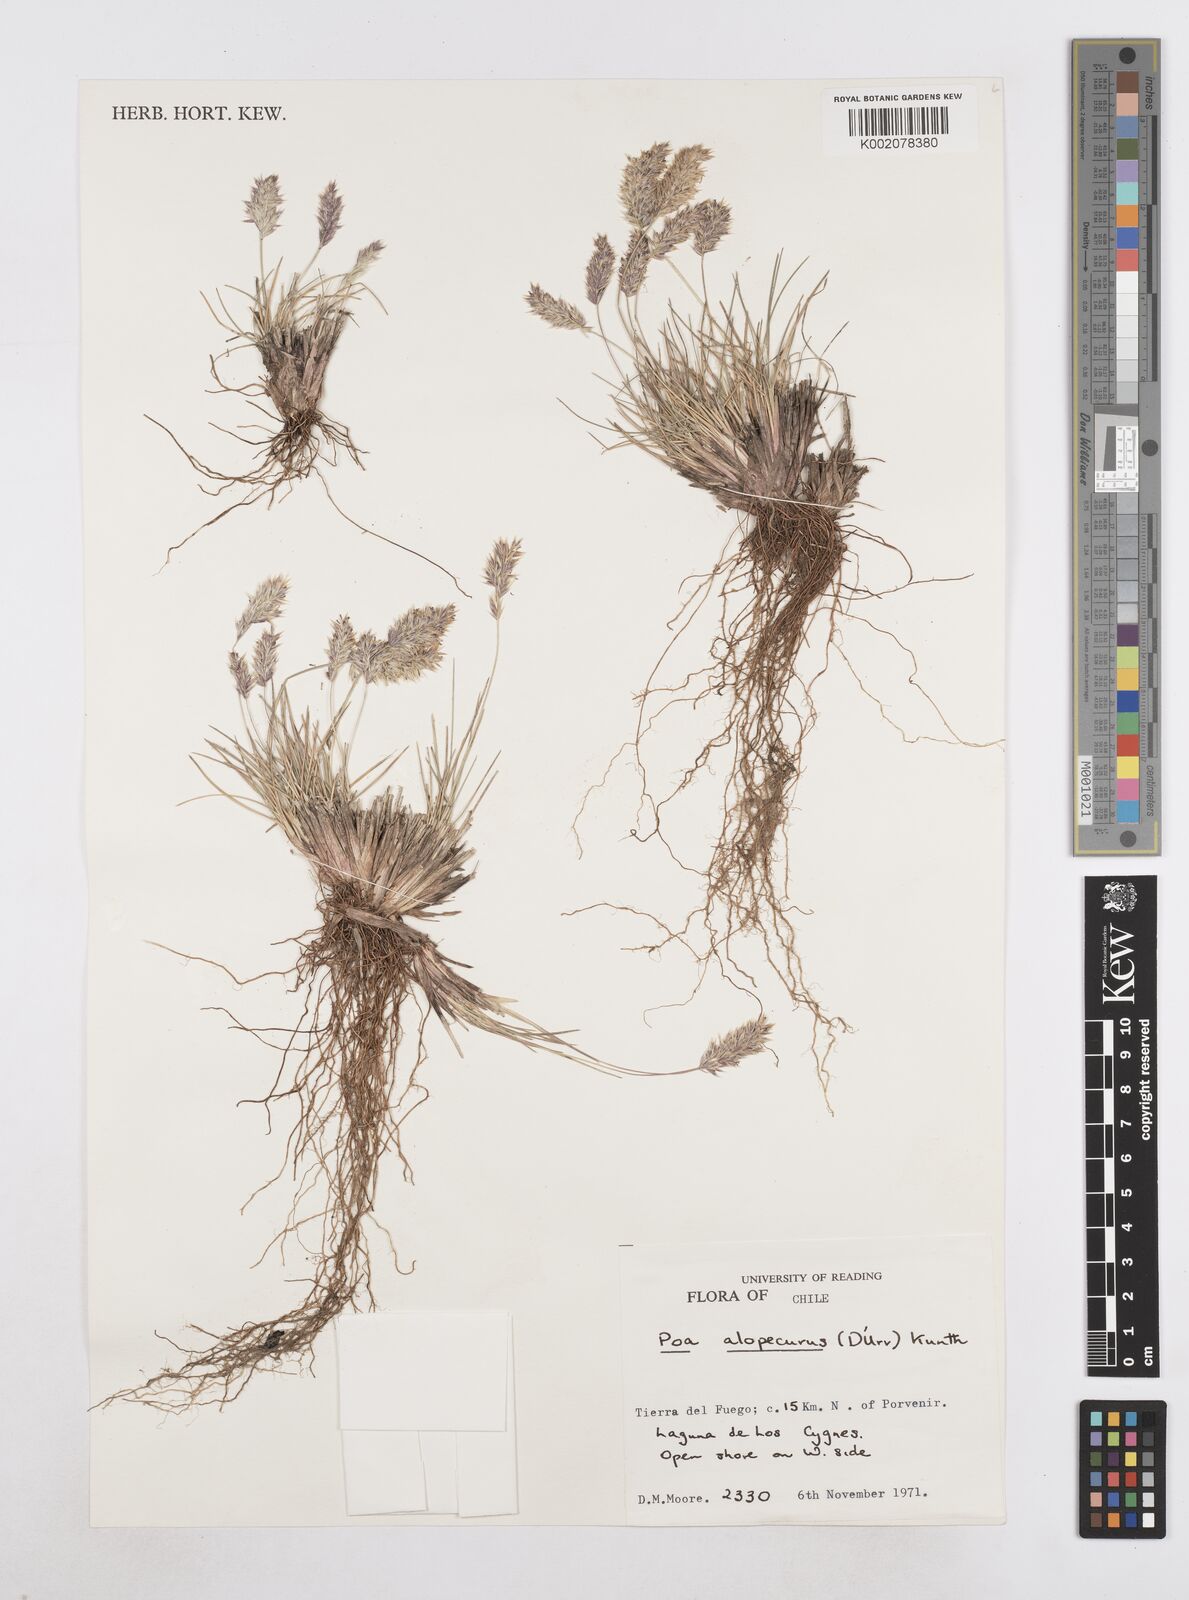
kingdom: Plantae
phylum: Tracheophyta
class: Liliopsida
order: Poales
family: Poaceae
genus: Poa
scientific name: Poa alopecurus
